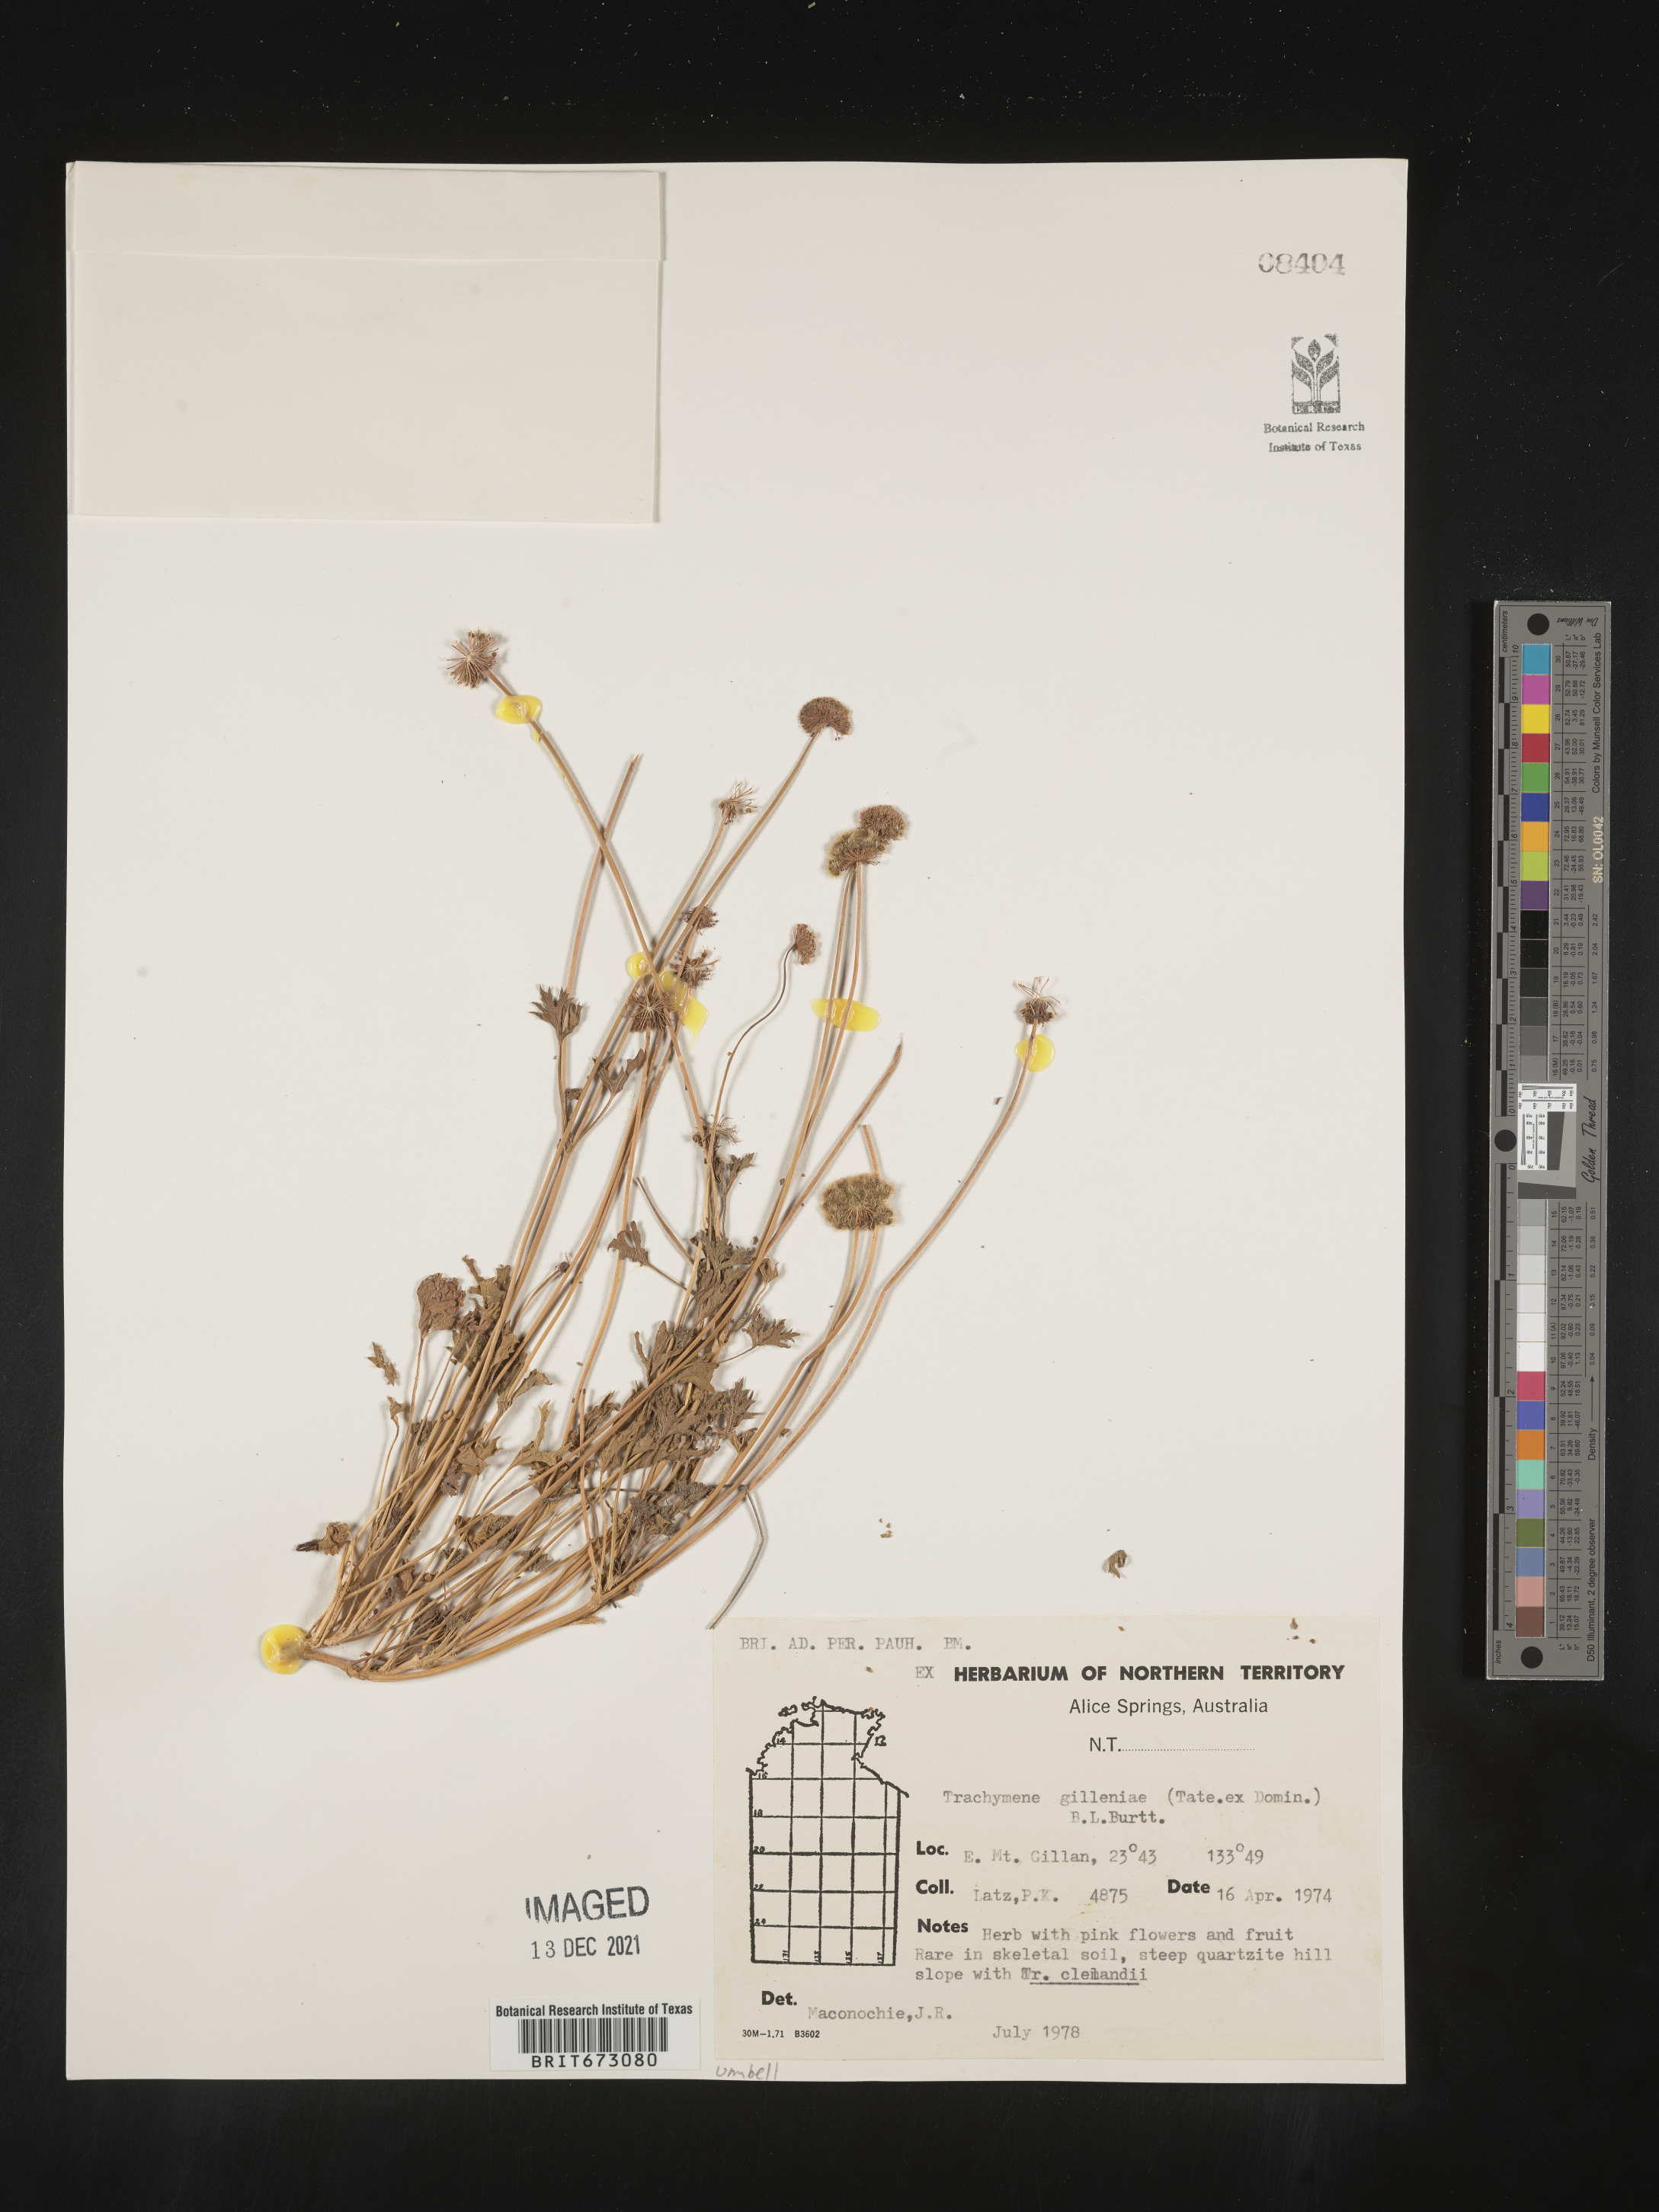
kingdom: Plantae
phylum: Tracheophyta
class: Magnoliopsida
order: Apiales
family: Araliaceae
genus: Trachymene
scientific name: Trachymene
